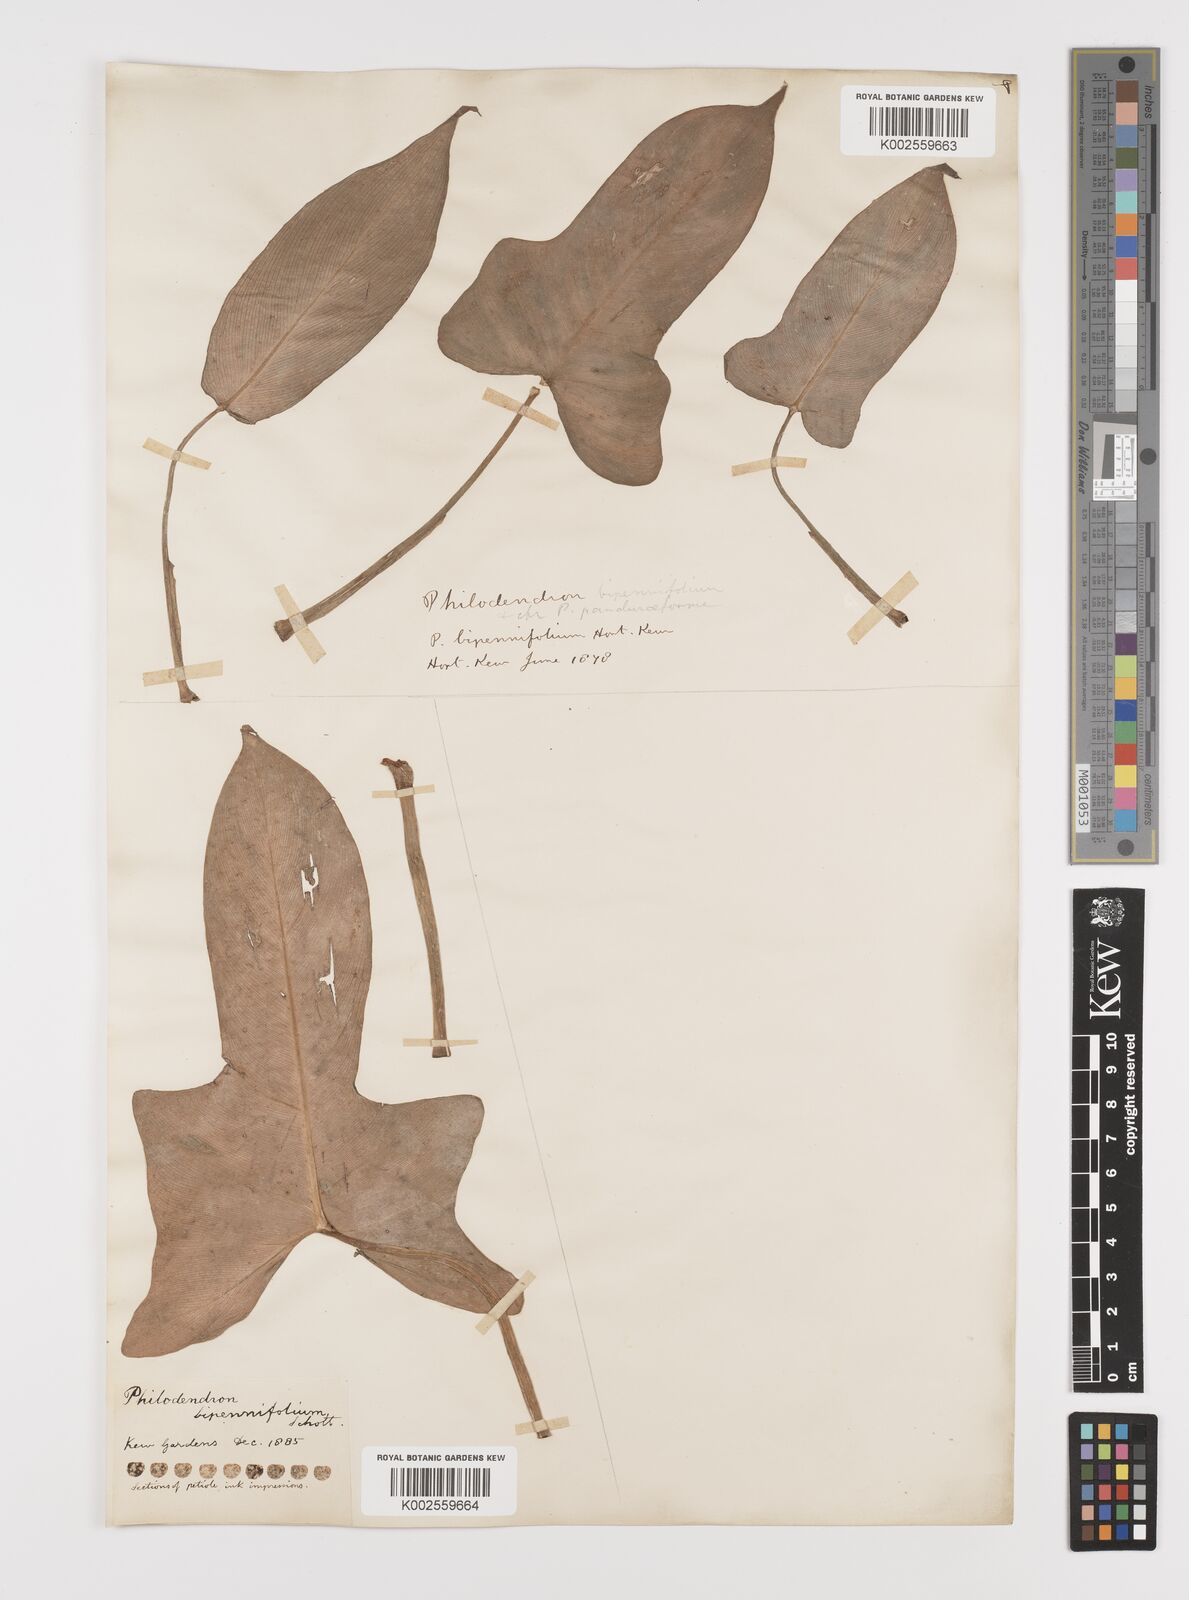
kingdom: Plantae
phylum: Tracheophyta
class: Liliopsida
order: Alismatales
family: Araceae
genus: Philodendron
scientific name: Philodendron bipennifolium
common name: Fiddle-leaf philodendron
